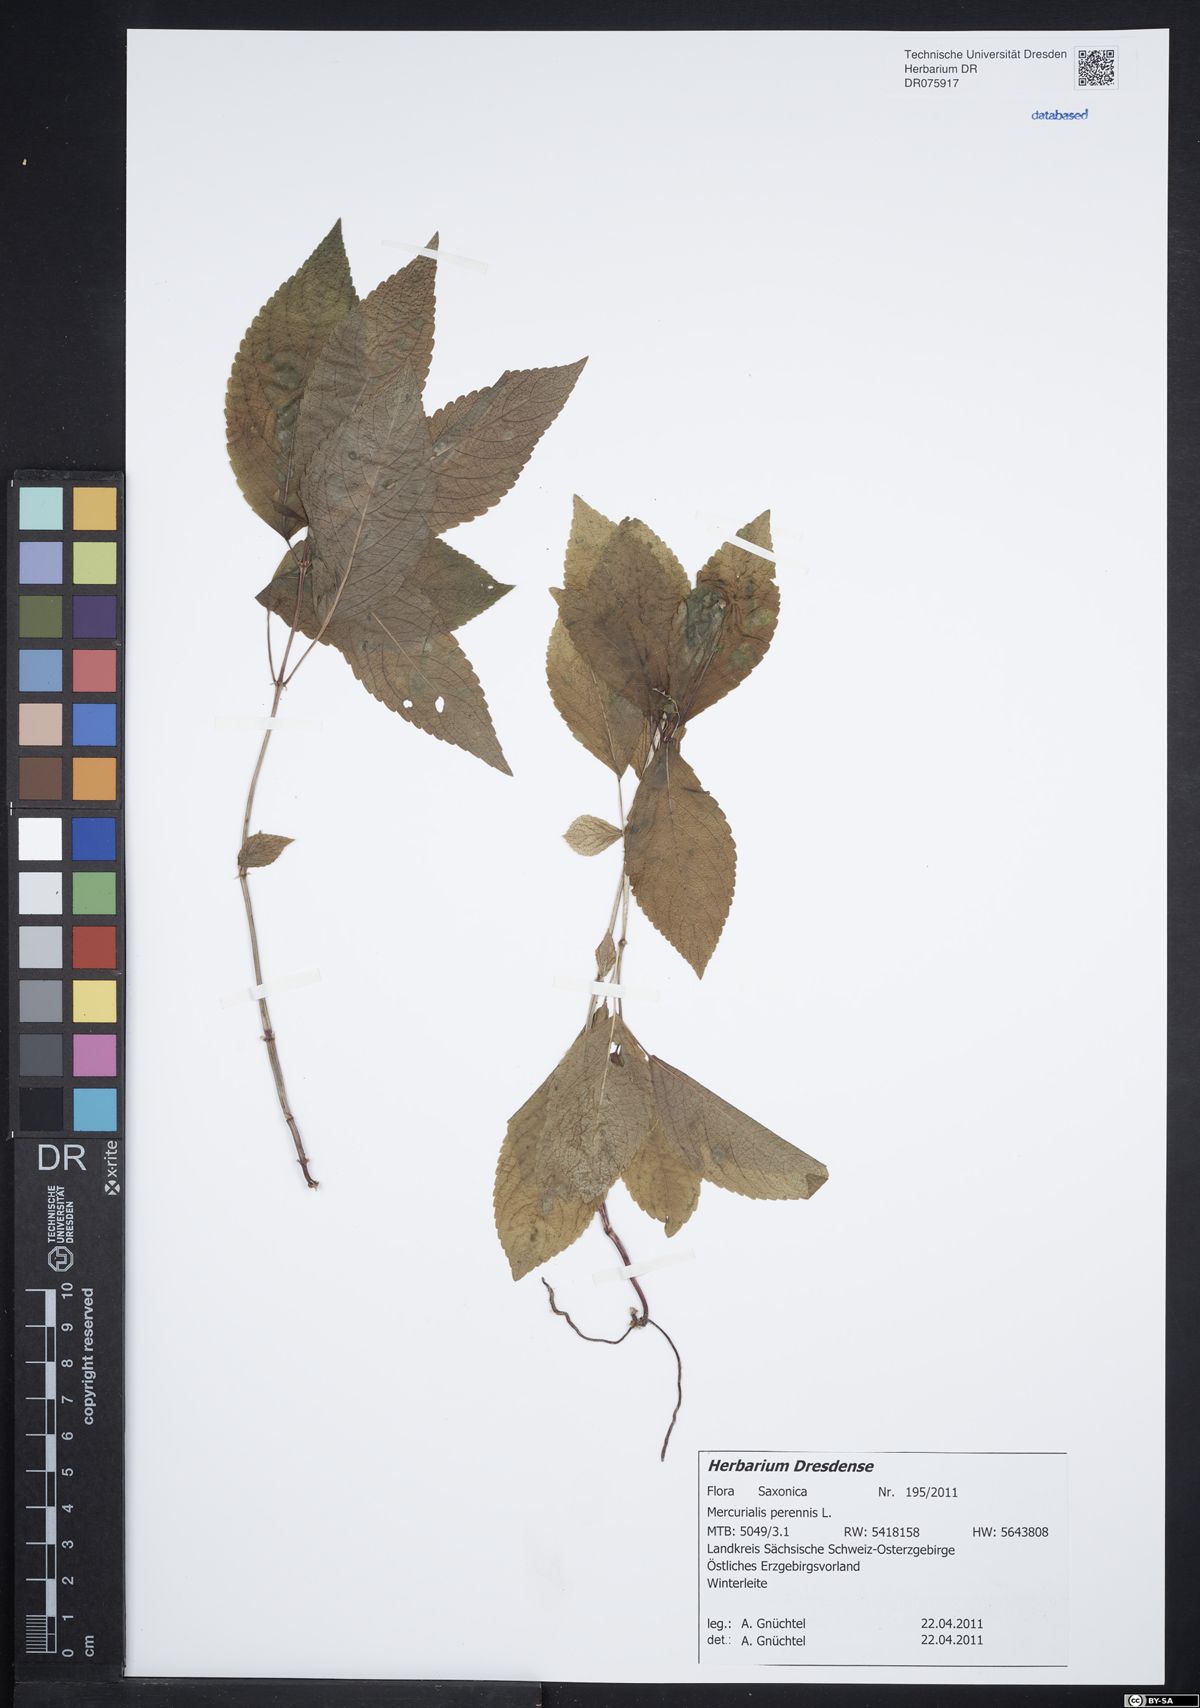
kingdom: Plantae
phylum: Tracheophyta
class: Magnoliopsida
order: Malpighiales
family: Euphorbiaceae
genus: Mercurialis
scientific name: Mercurialis perennis
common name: Dog mercury
